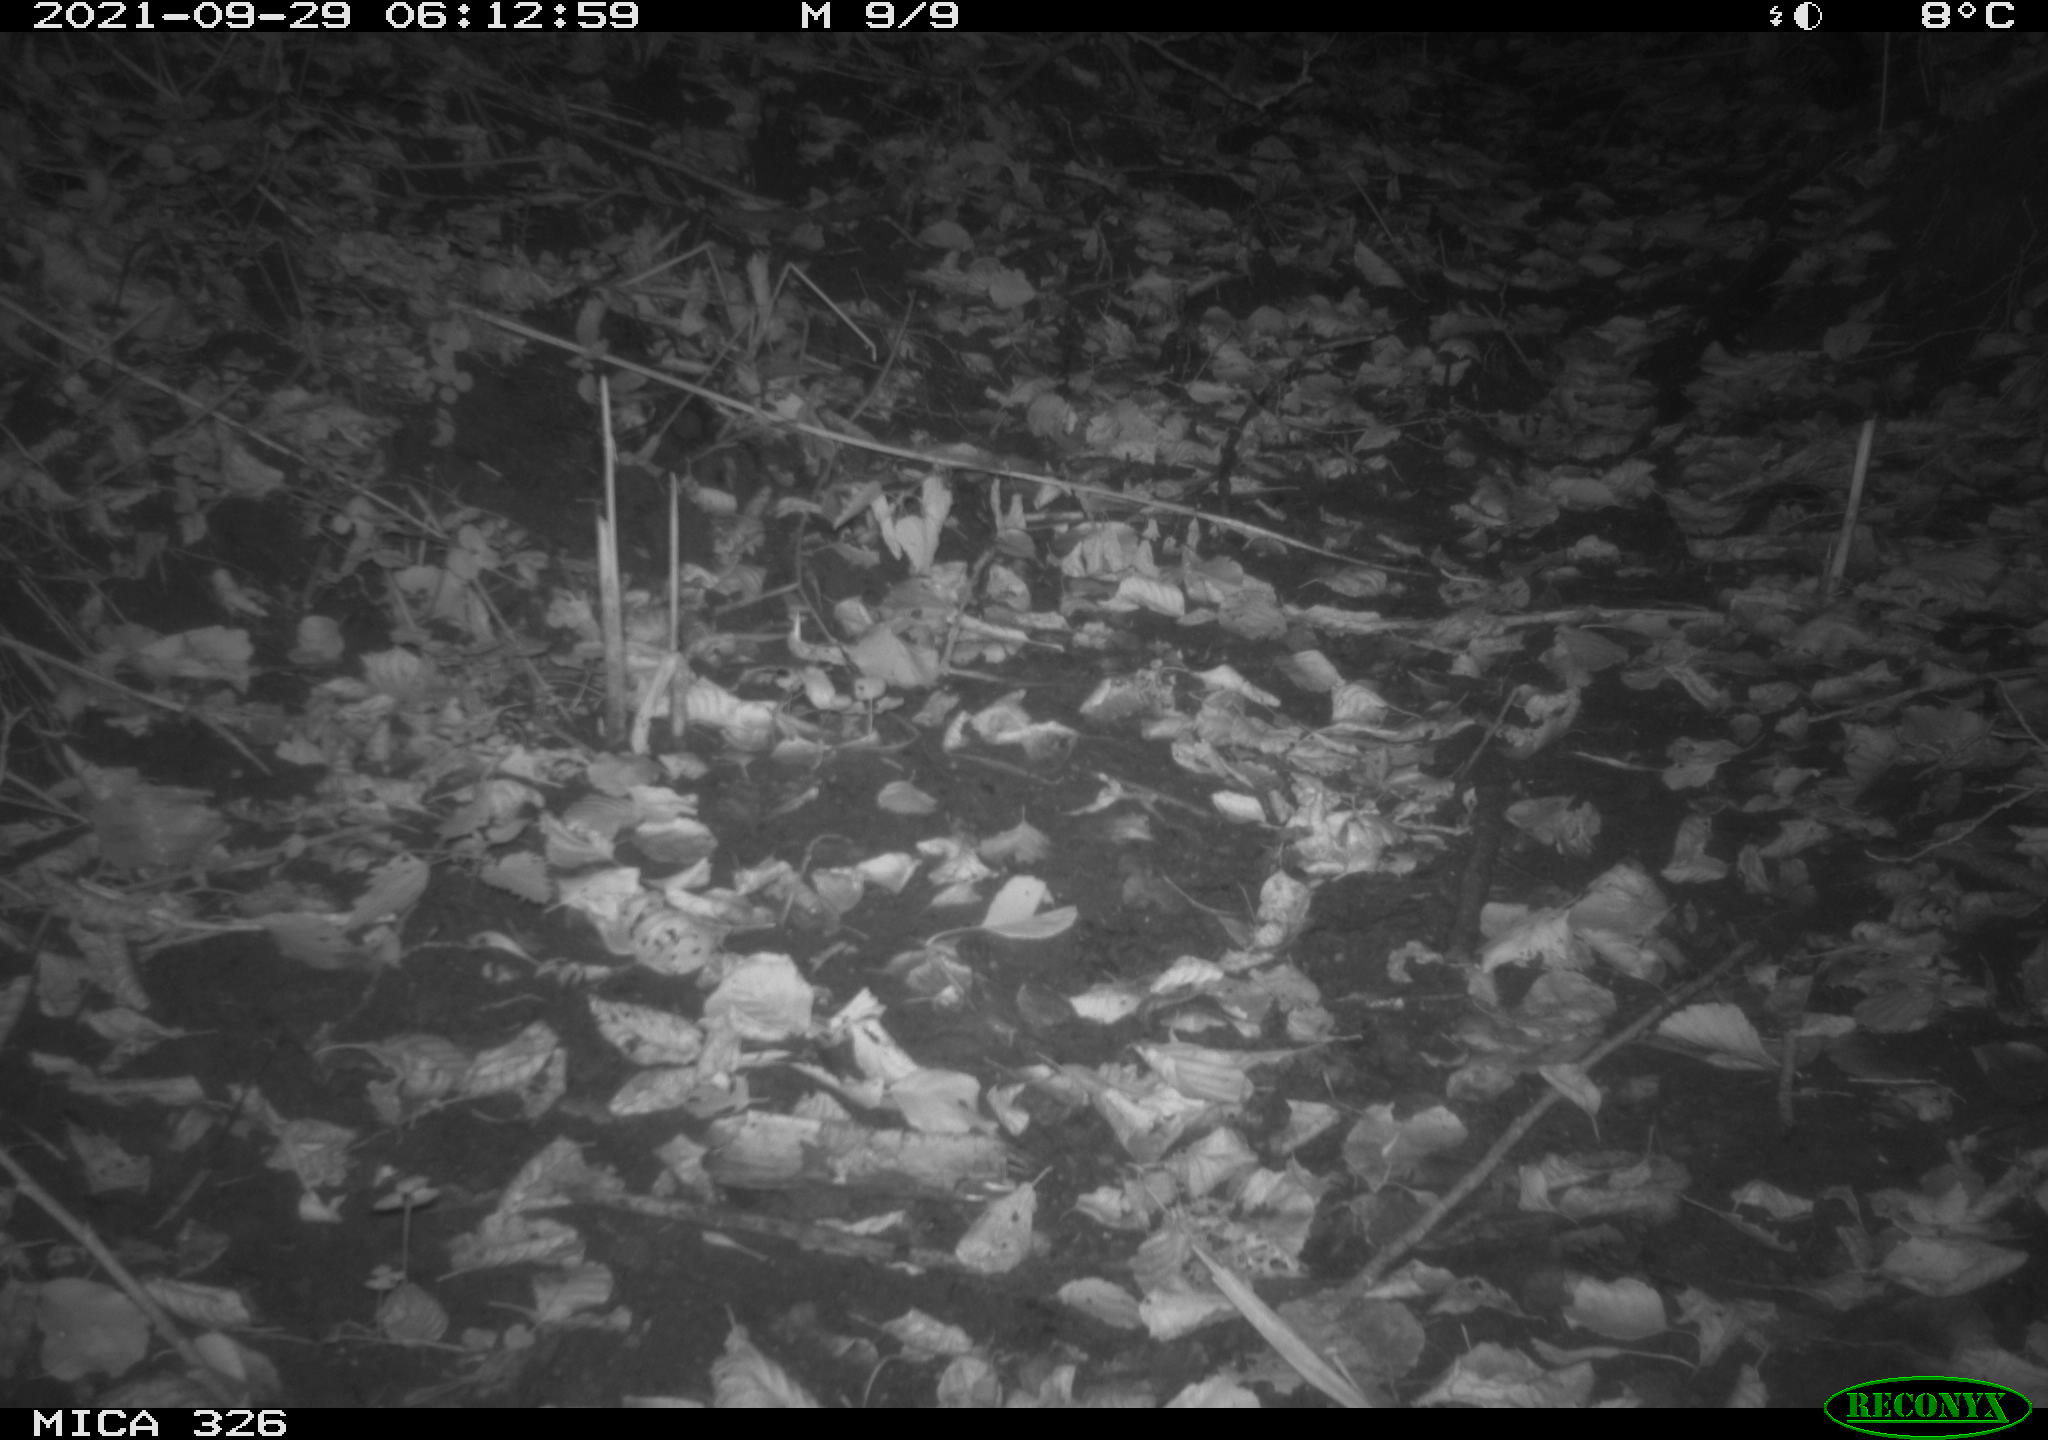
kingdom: Animalia
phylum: Chordata
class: Mammalia
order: Rodentia
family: Muridae
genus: Rattus
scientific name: Rattus norvegicus
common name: Brown rat
